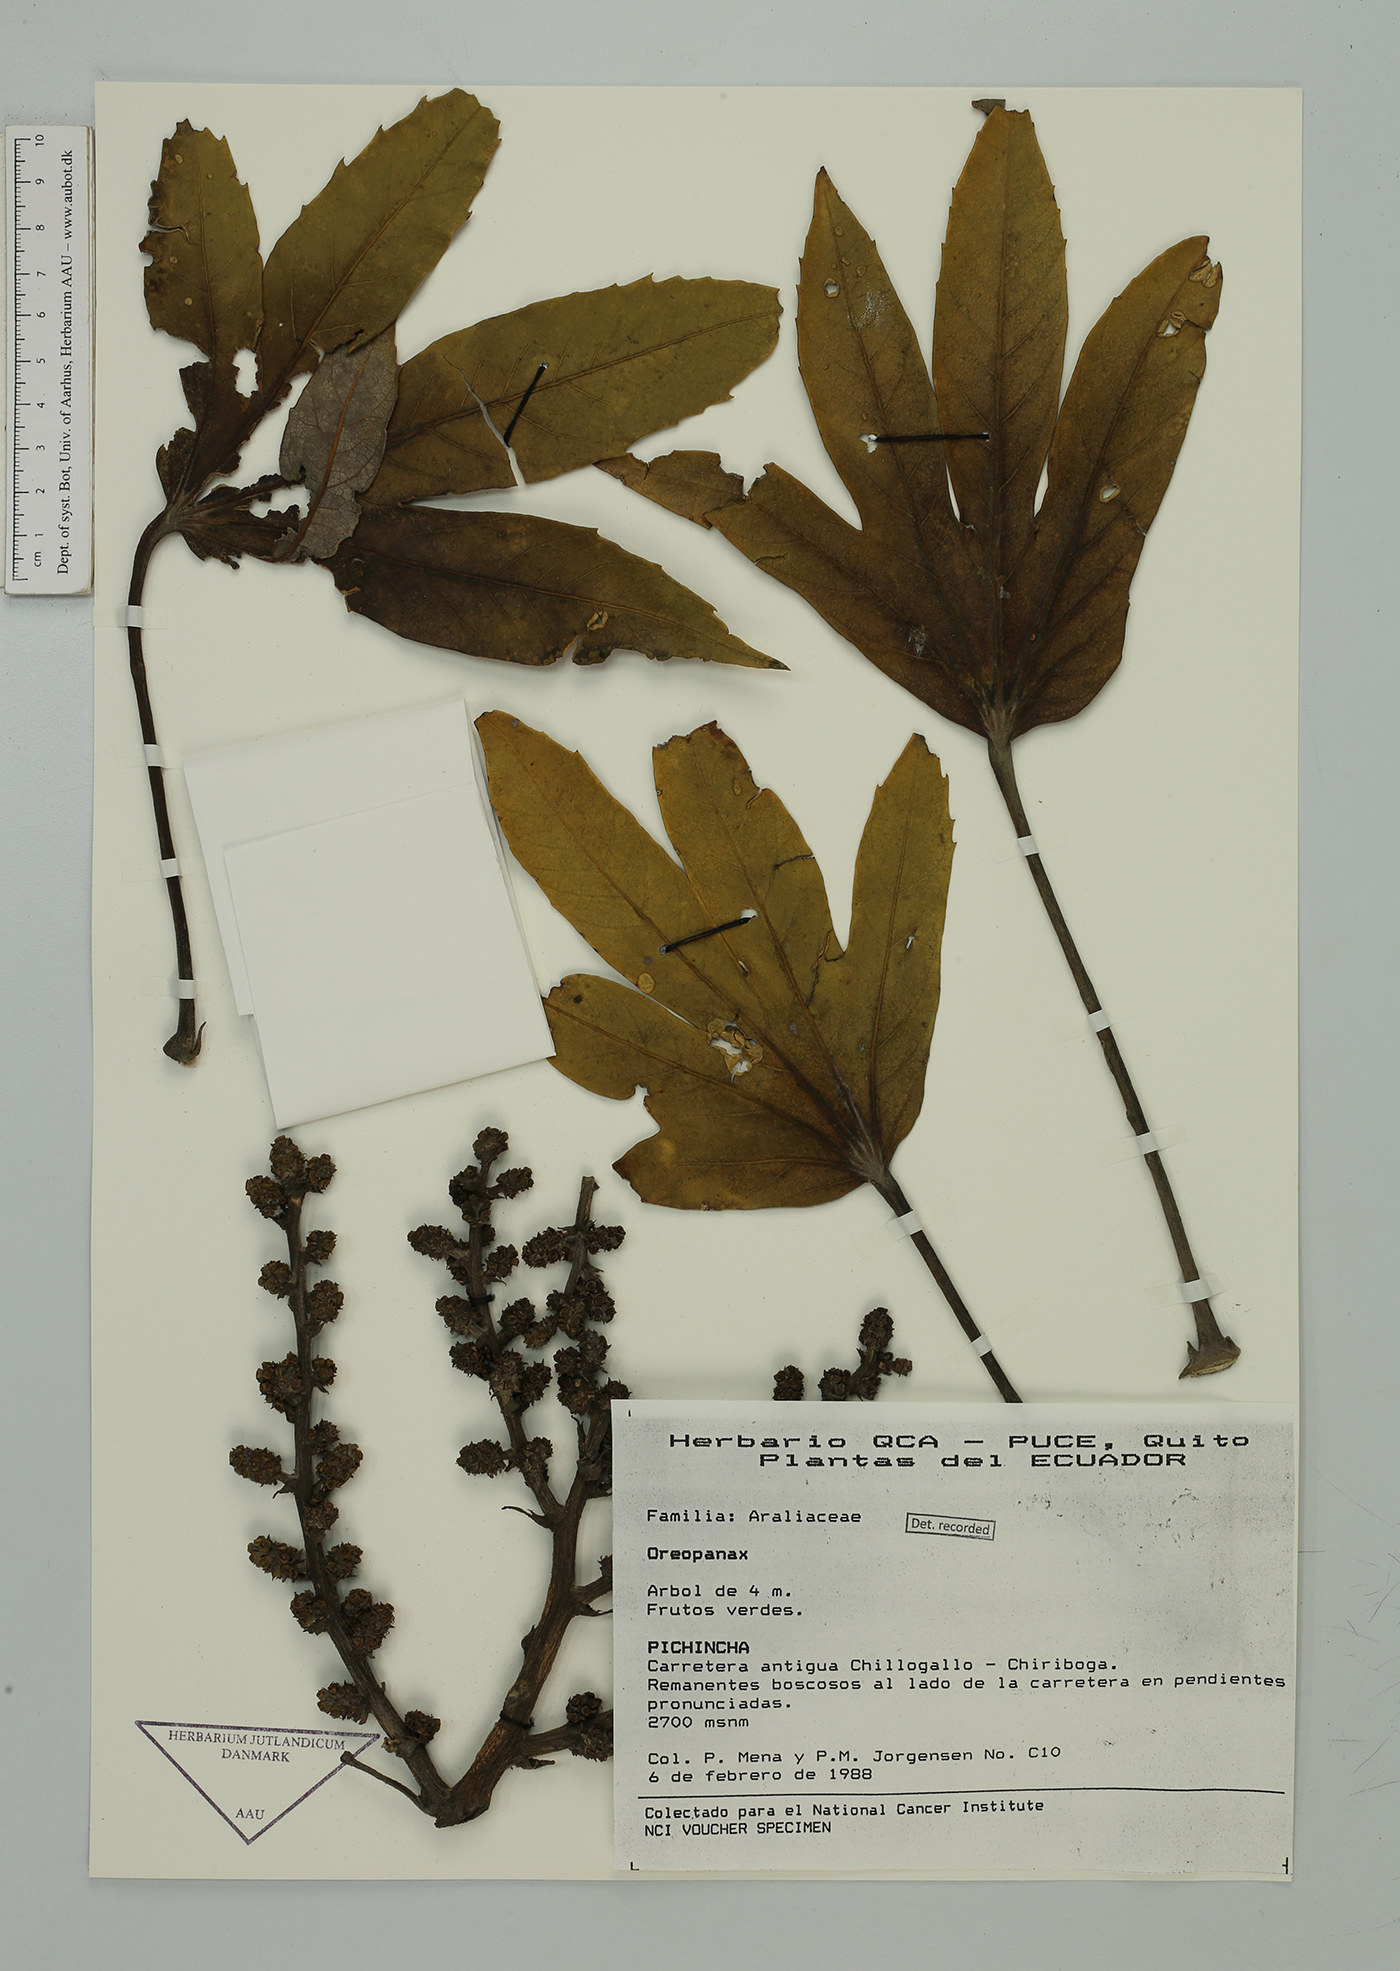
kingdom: Plantae
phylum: Tracheophyta
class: Magnoliopsida
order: Apiales
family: Araliaceae
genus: Oreopanax
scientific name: Oreopanax
